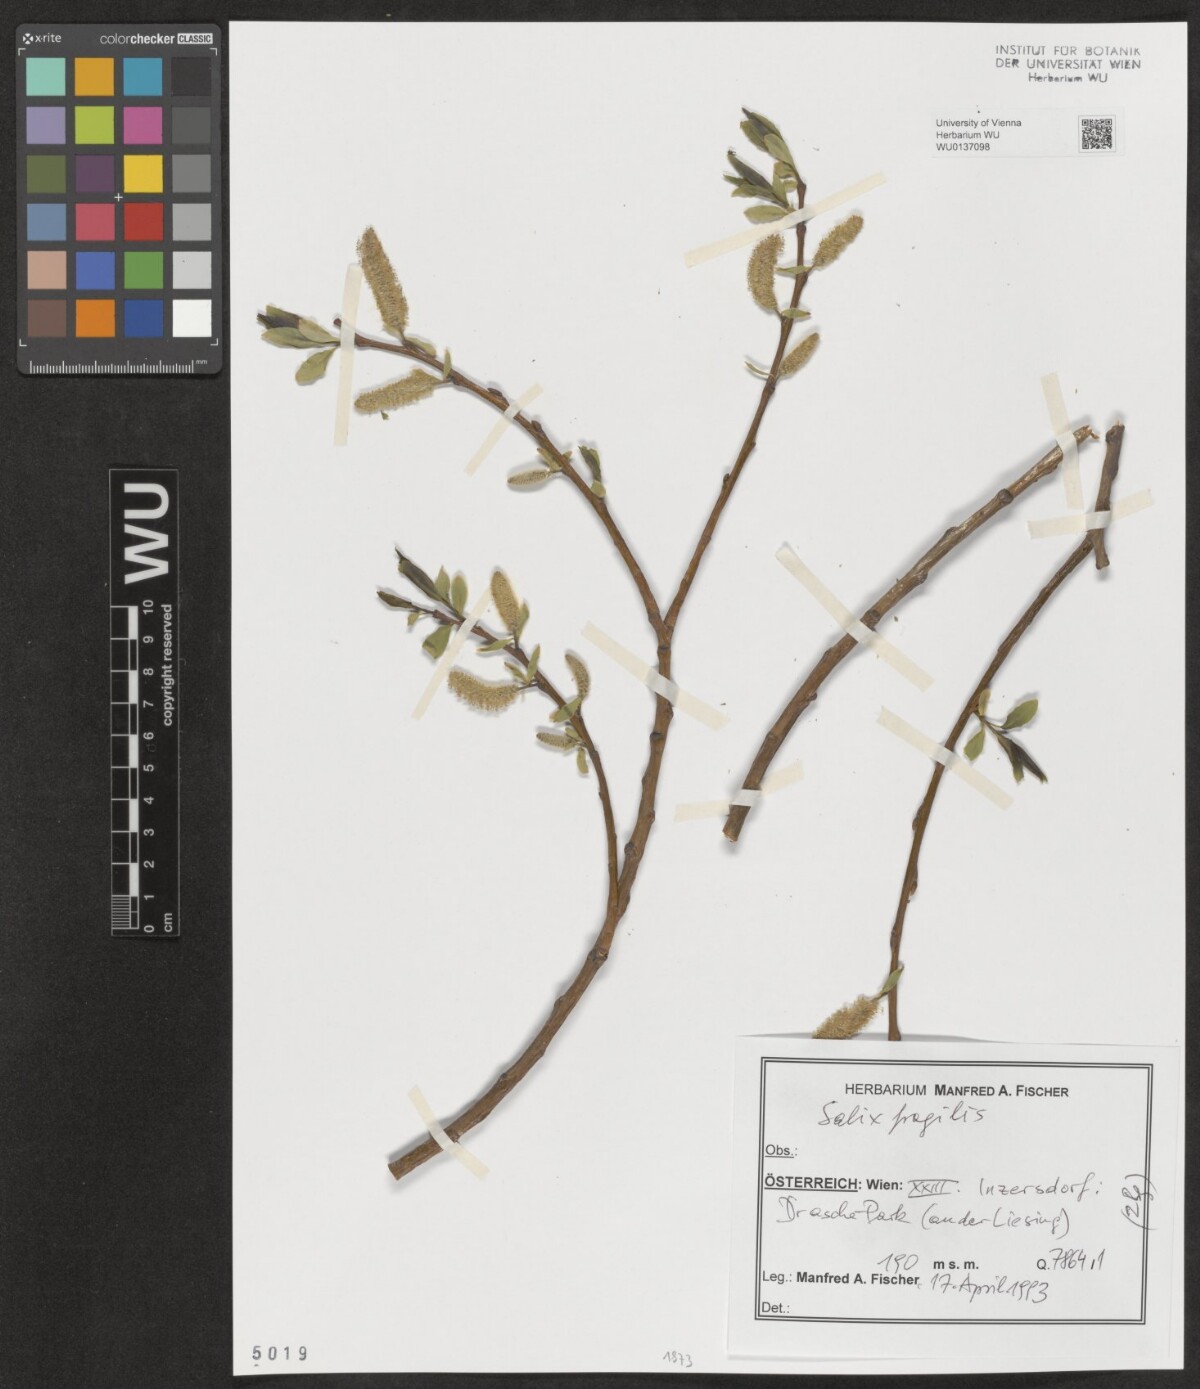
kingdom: Plantae
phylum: Tracheophyta
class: Magnoliopsida
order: Malpighiales
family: Salicaceae
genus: Salix
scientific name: Salix fragilis
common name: Crack willow
